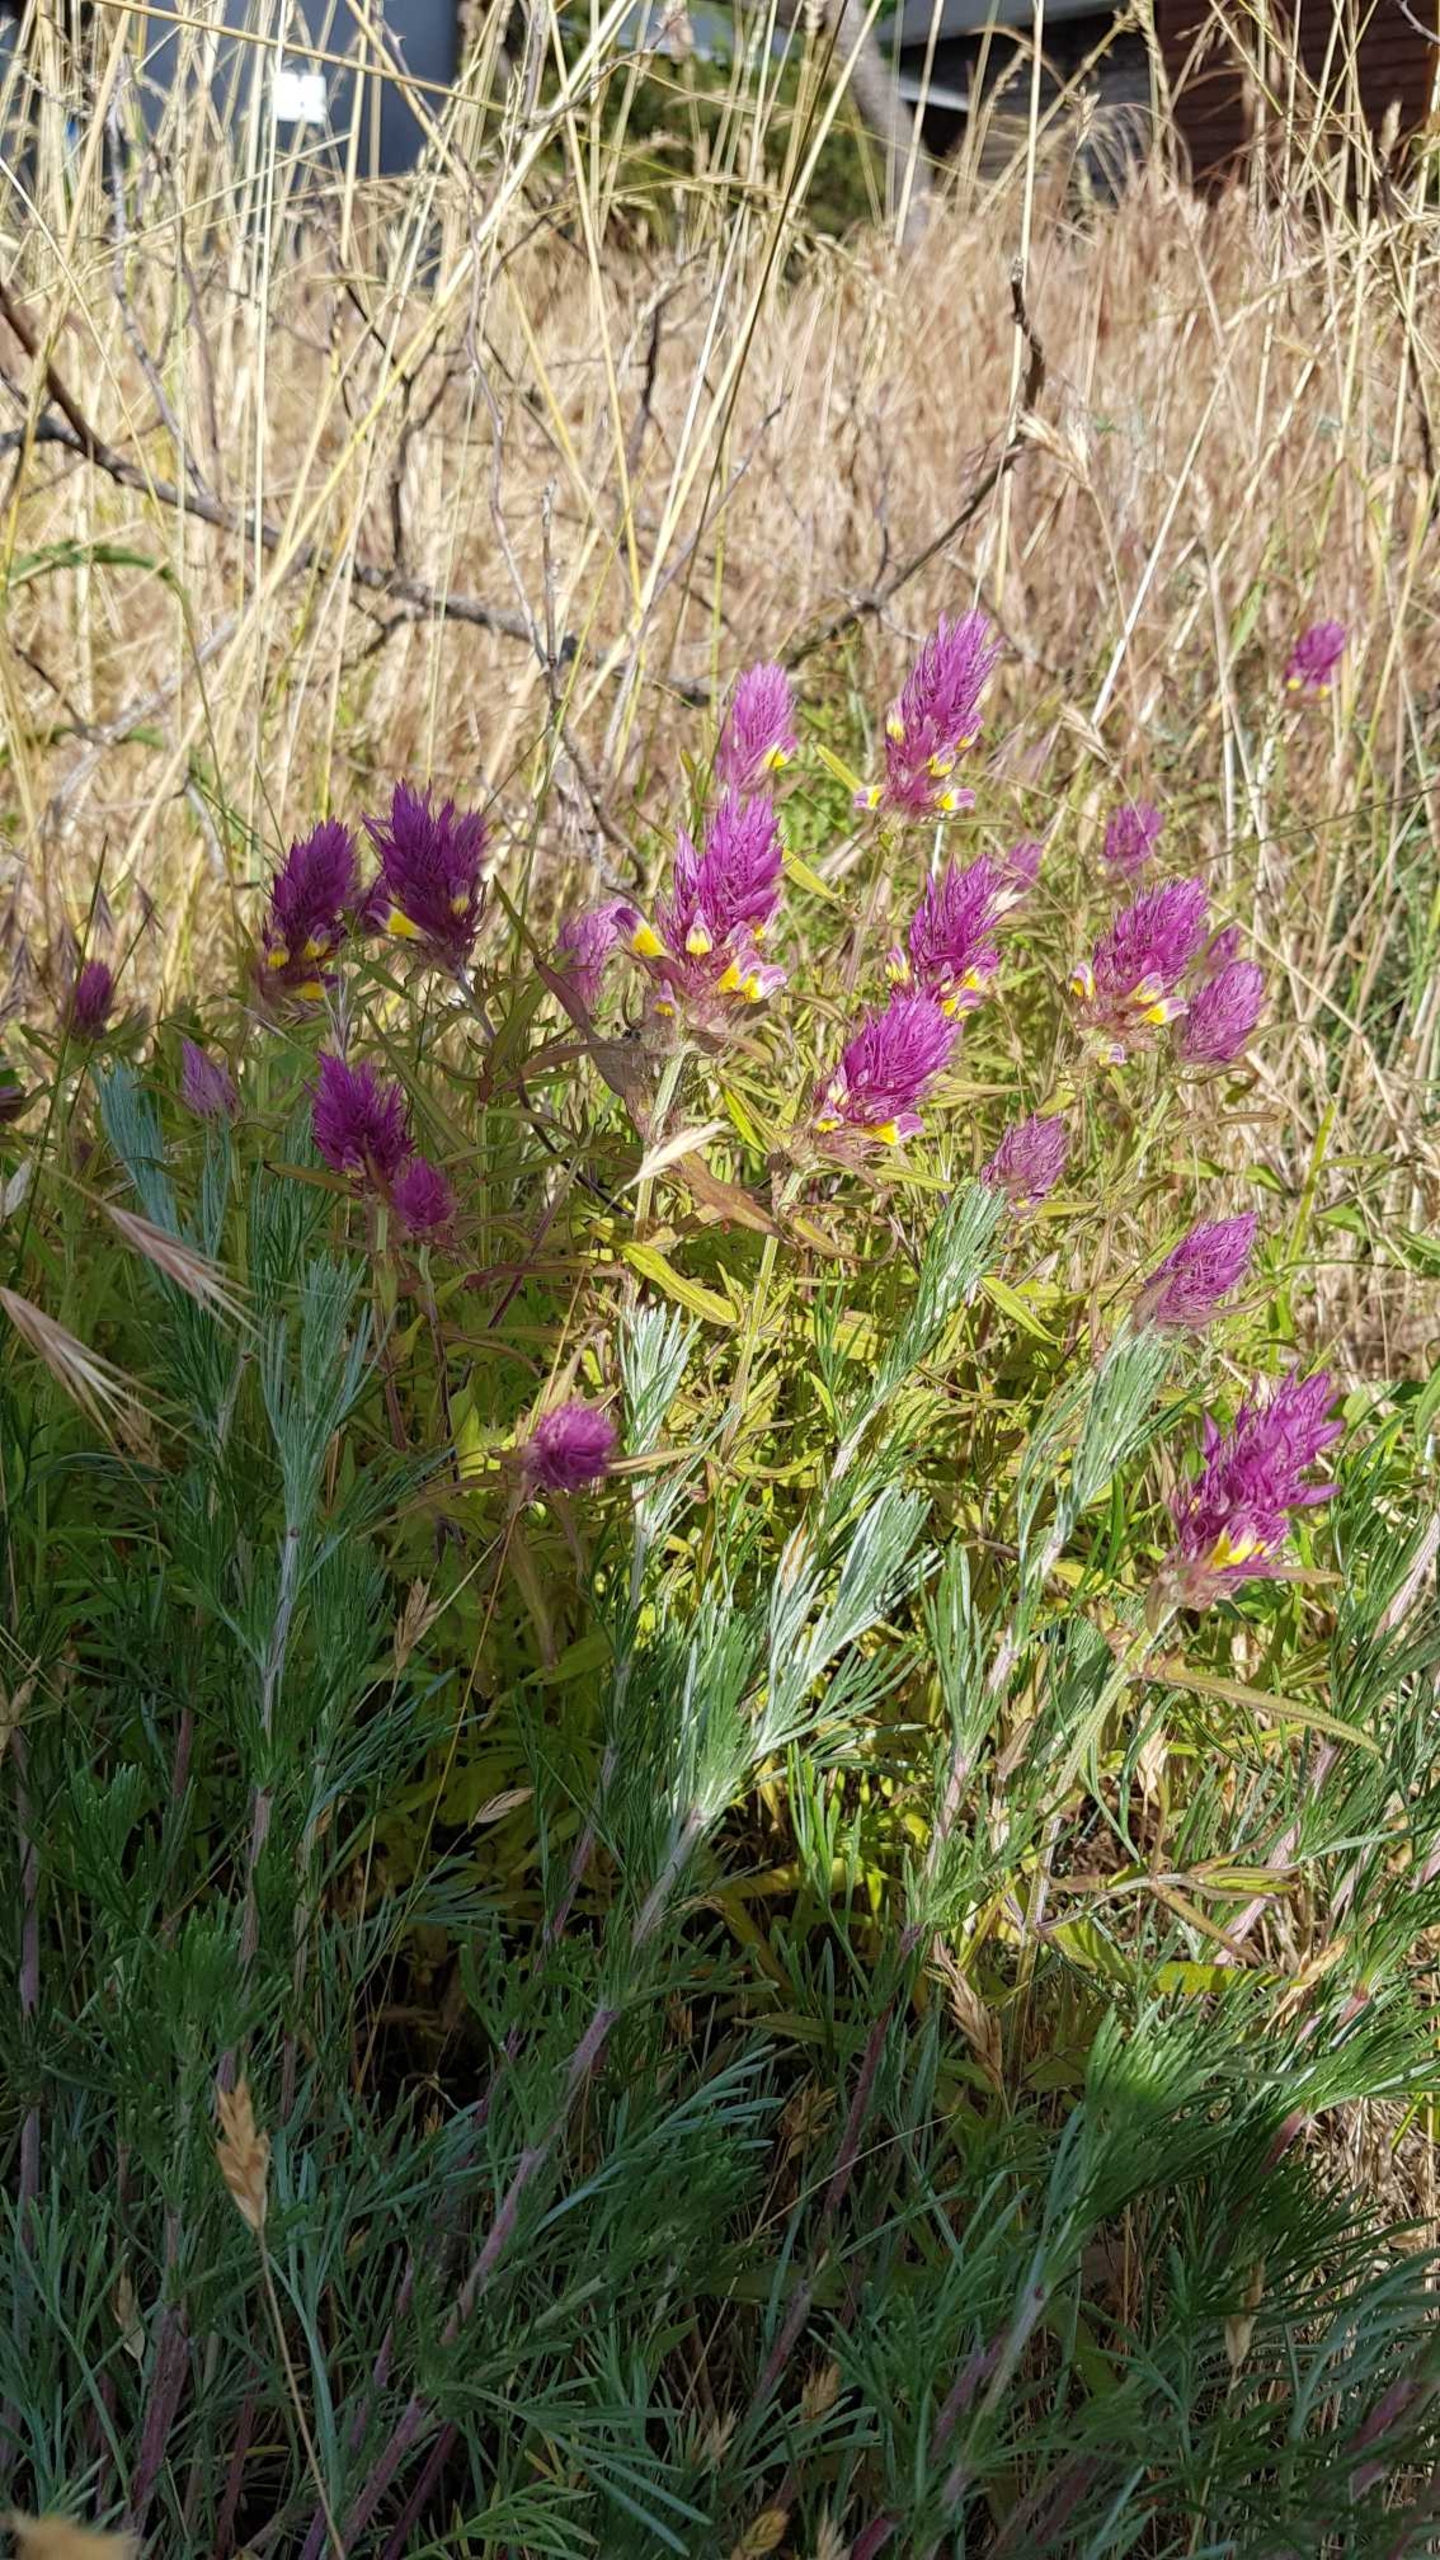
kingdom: Plantae
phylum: Tracheophyta
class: Magnoliopsida
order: Lamiales
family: Orobanchaceae
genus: Melampyrum
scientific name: Melampyrum arvense
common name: Ager-kohvede
